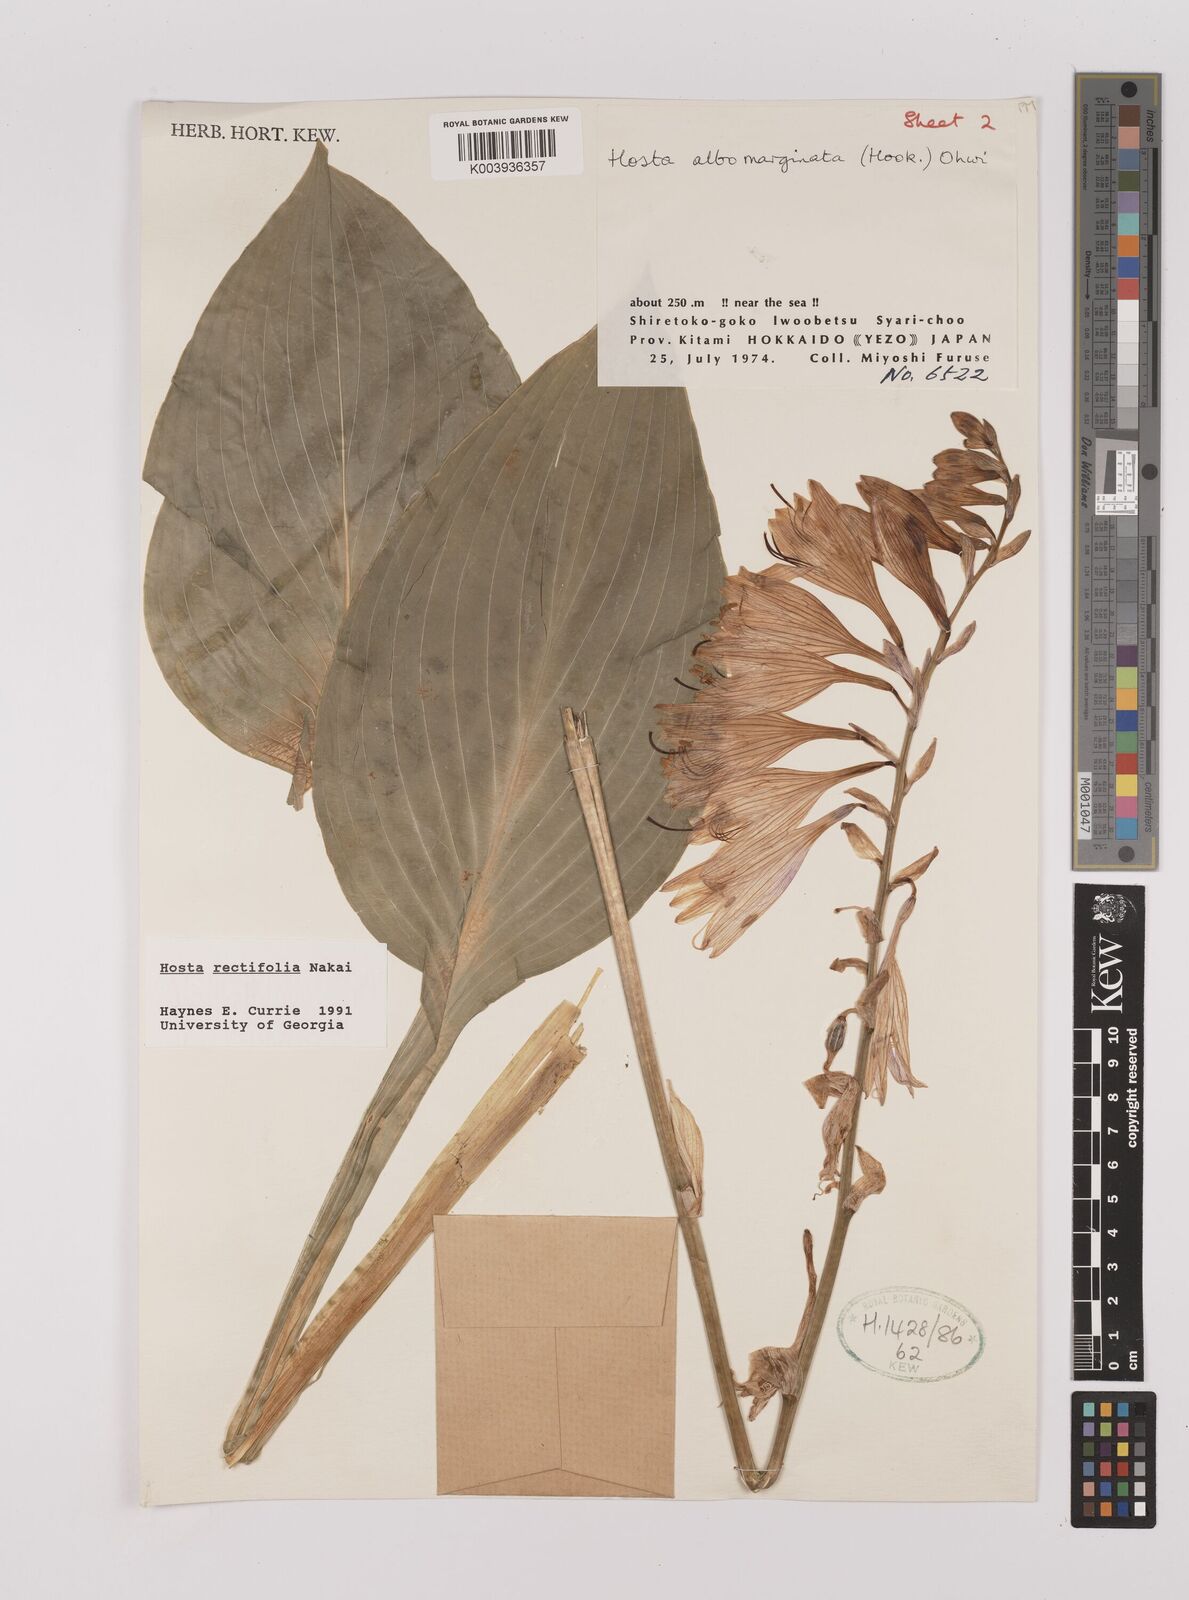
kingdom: Plantae
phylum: Tracheophyta
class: Liliopsida
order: Asparagales
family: Asparagaceae
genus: Hosta
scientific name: Hosta sieboldii
